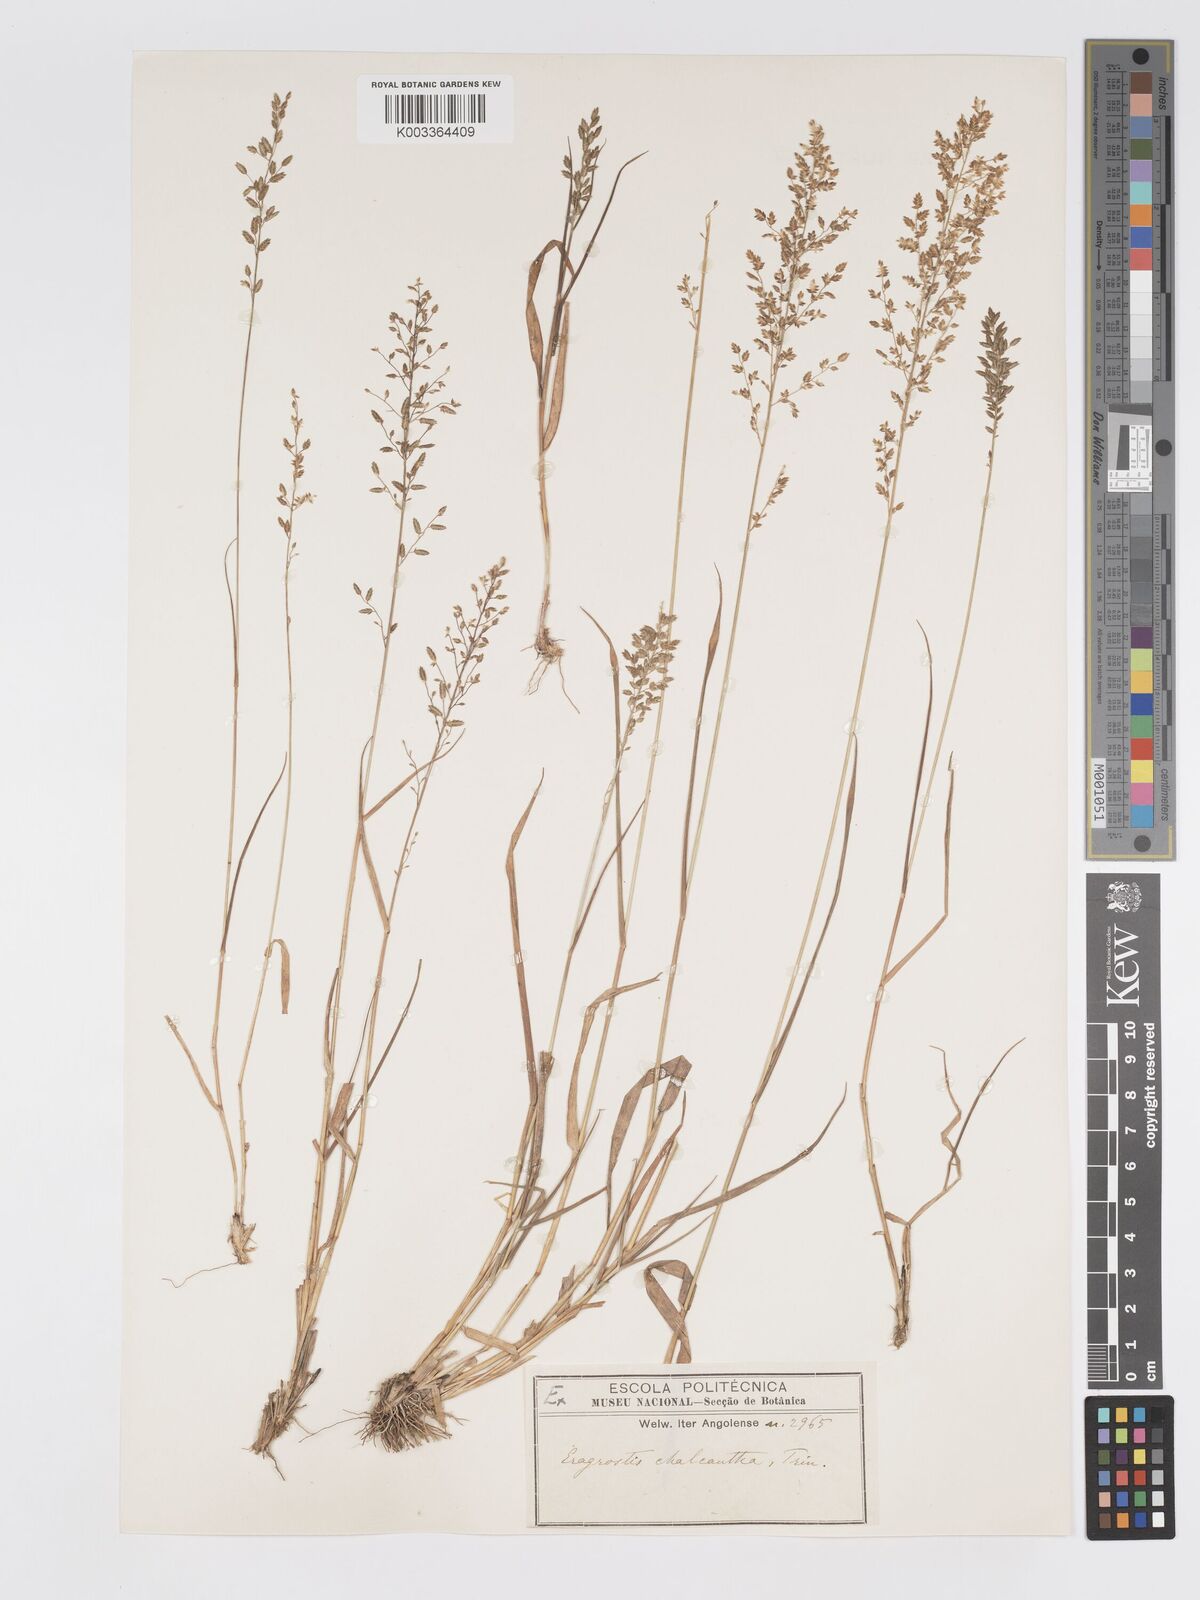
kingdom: Plantae
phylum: Tracheophyta
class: Liliopsida
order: Poales
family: Poaceae
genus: Eragrostis
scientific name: Eragrostis racemosa
